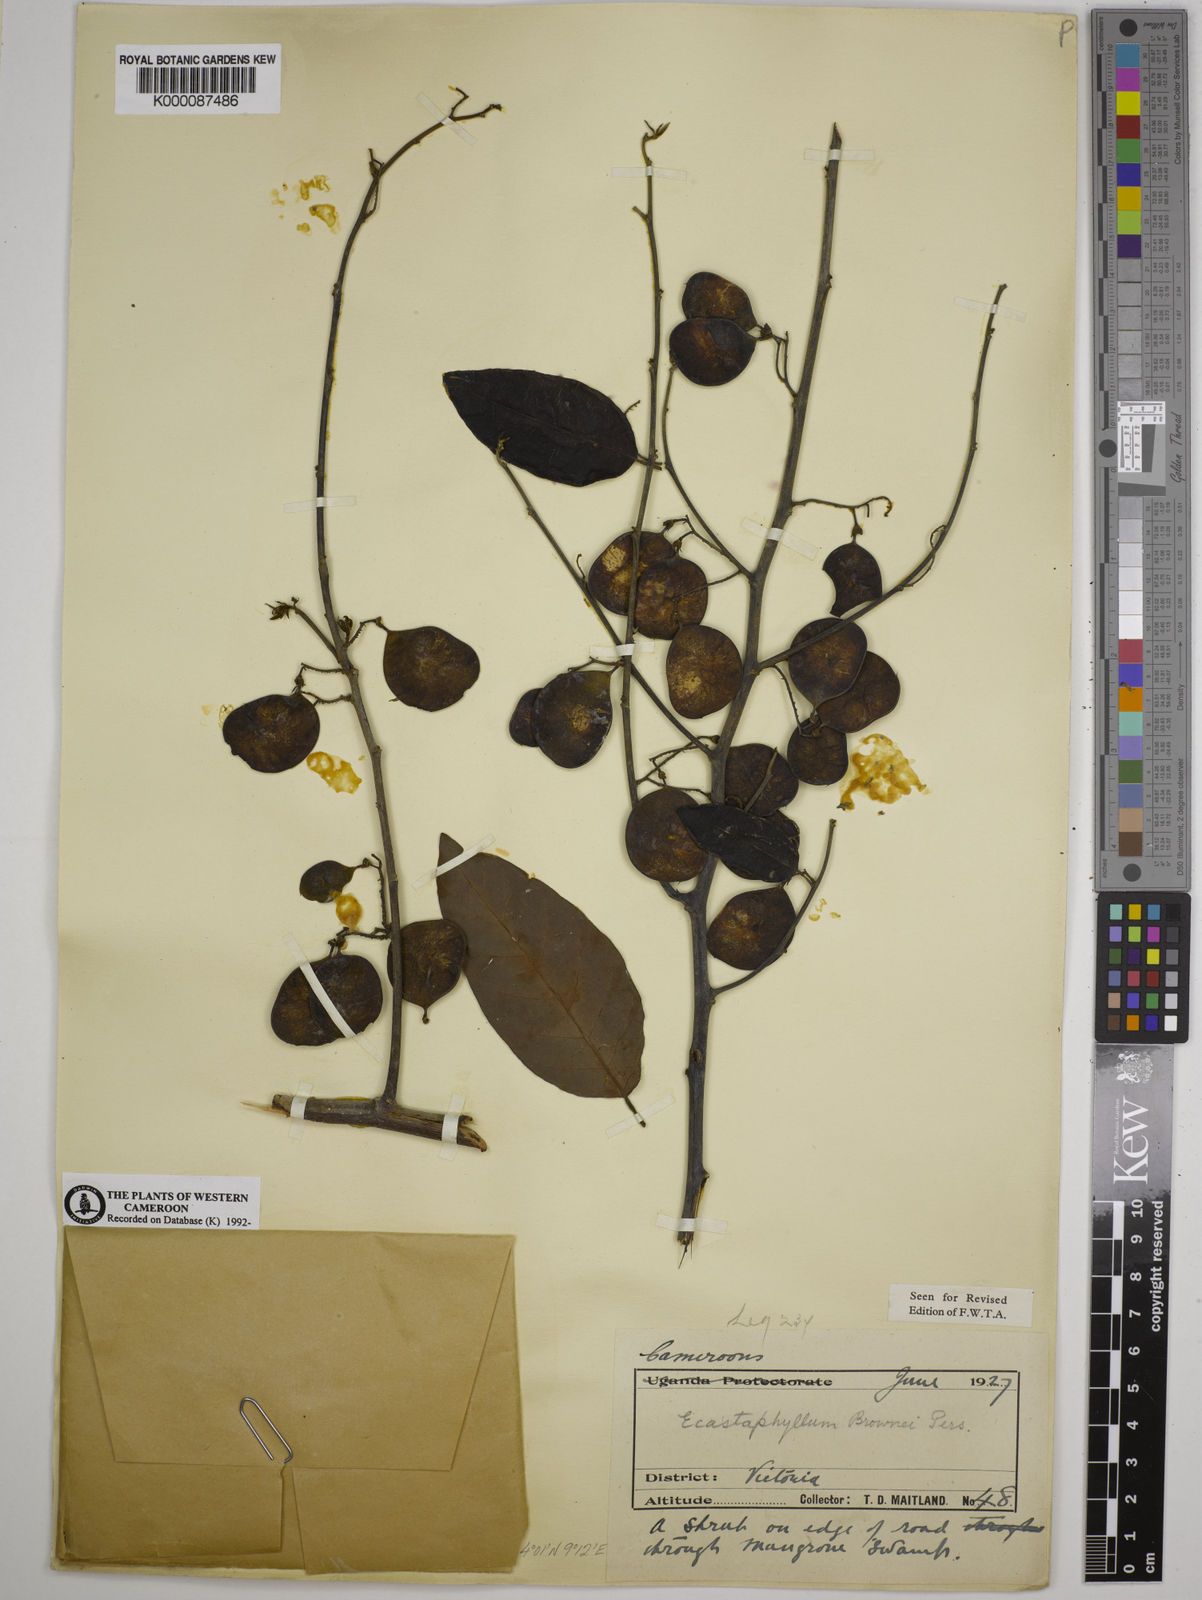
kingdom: Plantae
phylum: Tracheophyta
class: Magnoliopsida
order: Fabales
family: Fabaceae
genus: Dalbergia
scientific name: Dalbergia ecastaphyllum
